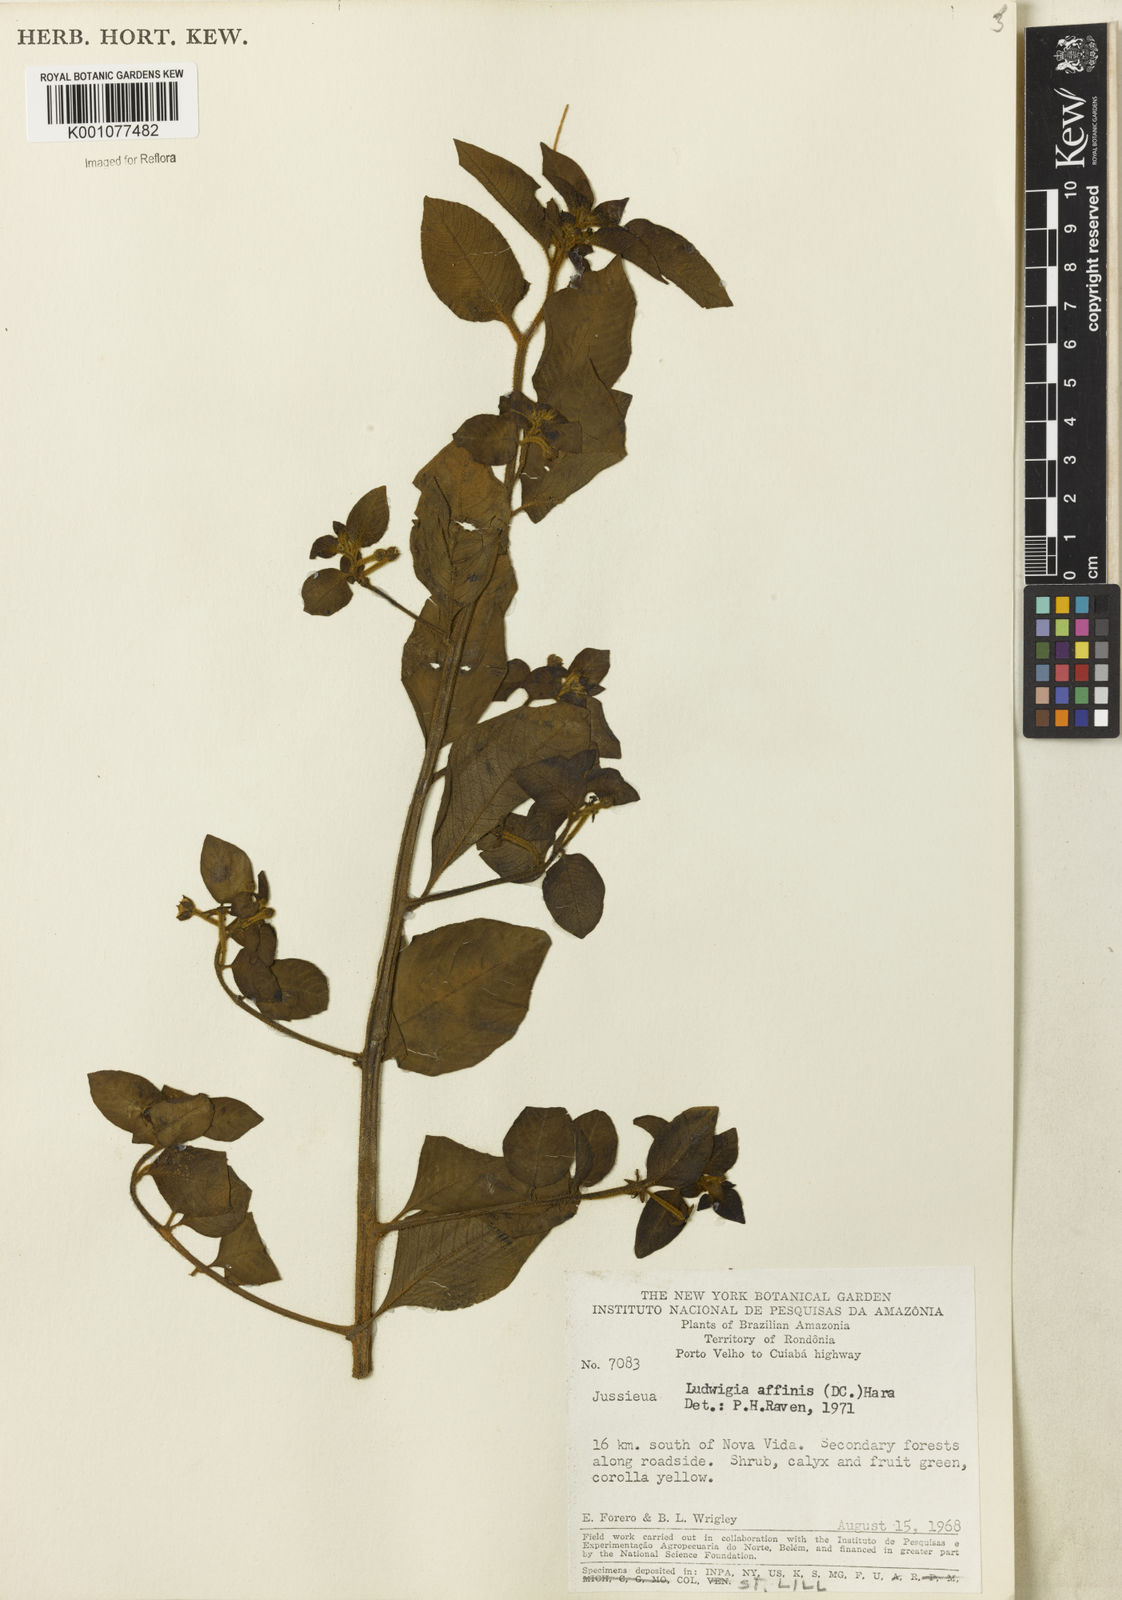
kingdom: Plantae
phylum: Tracheophyta
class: Magnoliopsida
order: Myrtales
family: Onagraceae
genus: Ludwigia
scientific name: Ludwigia affinis
